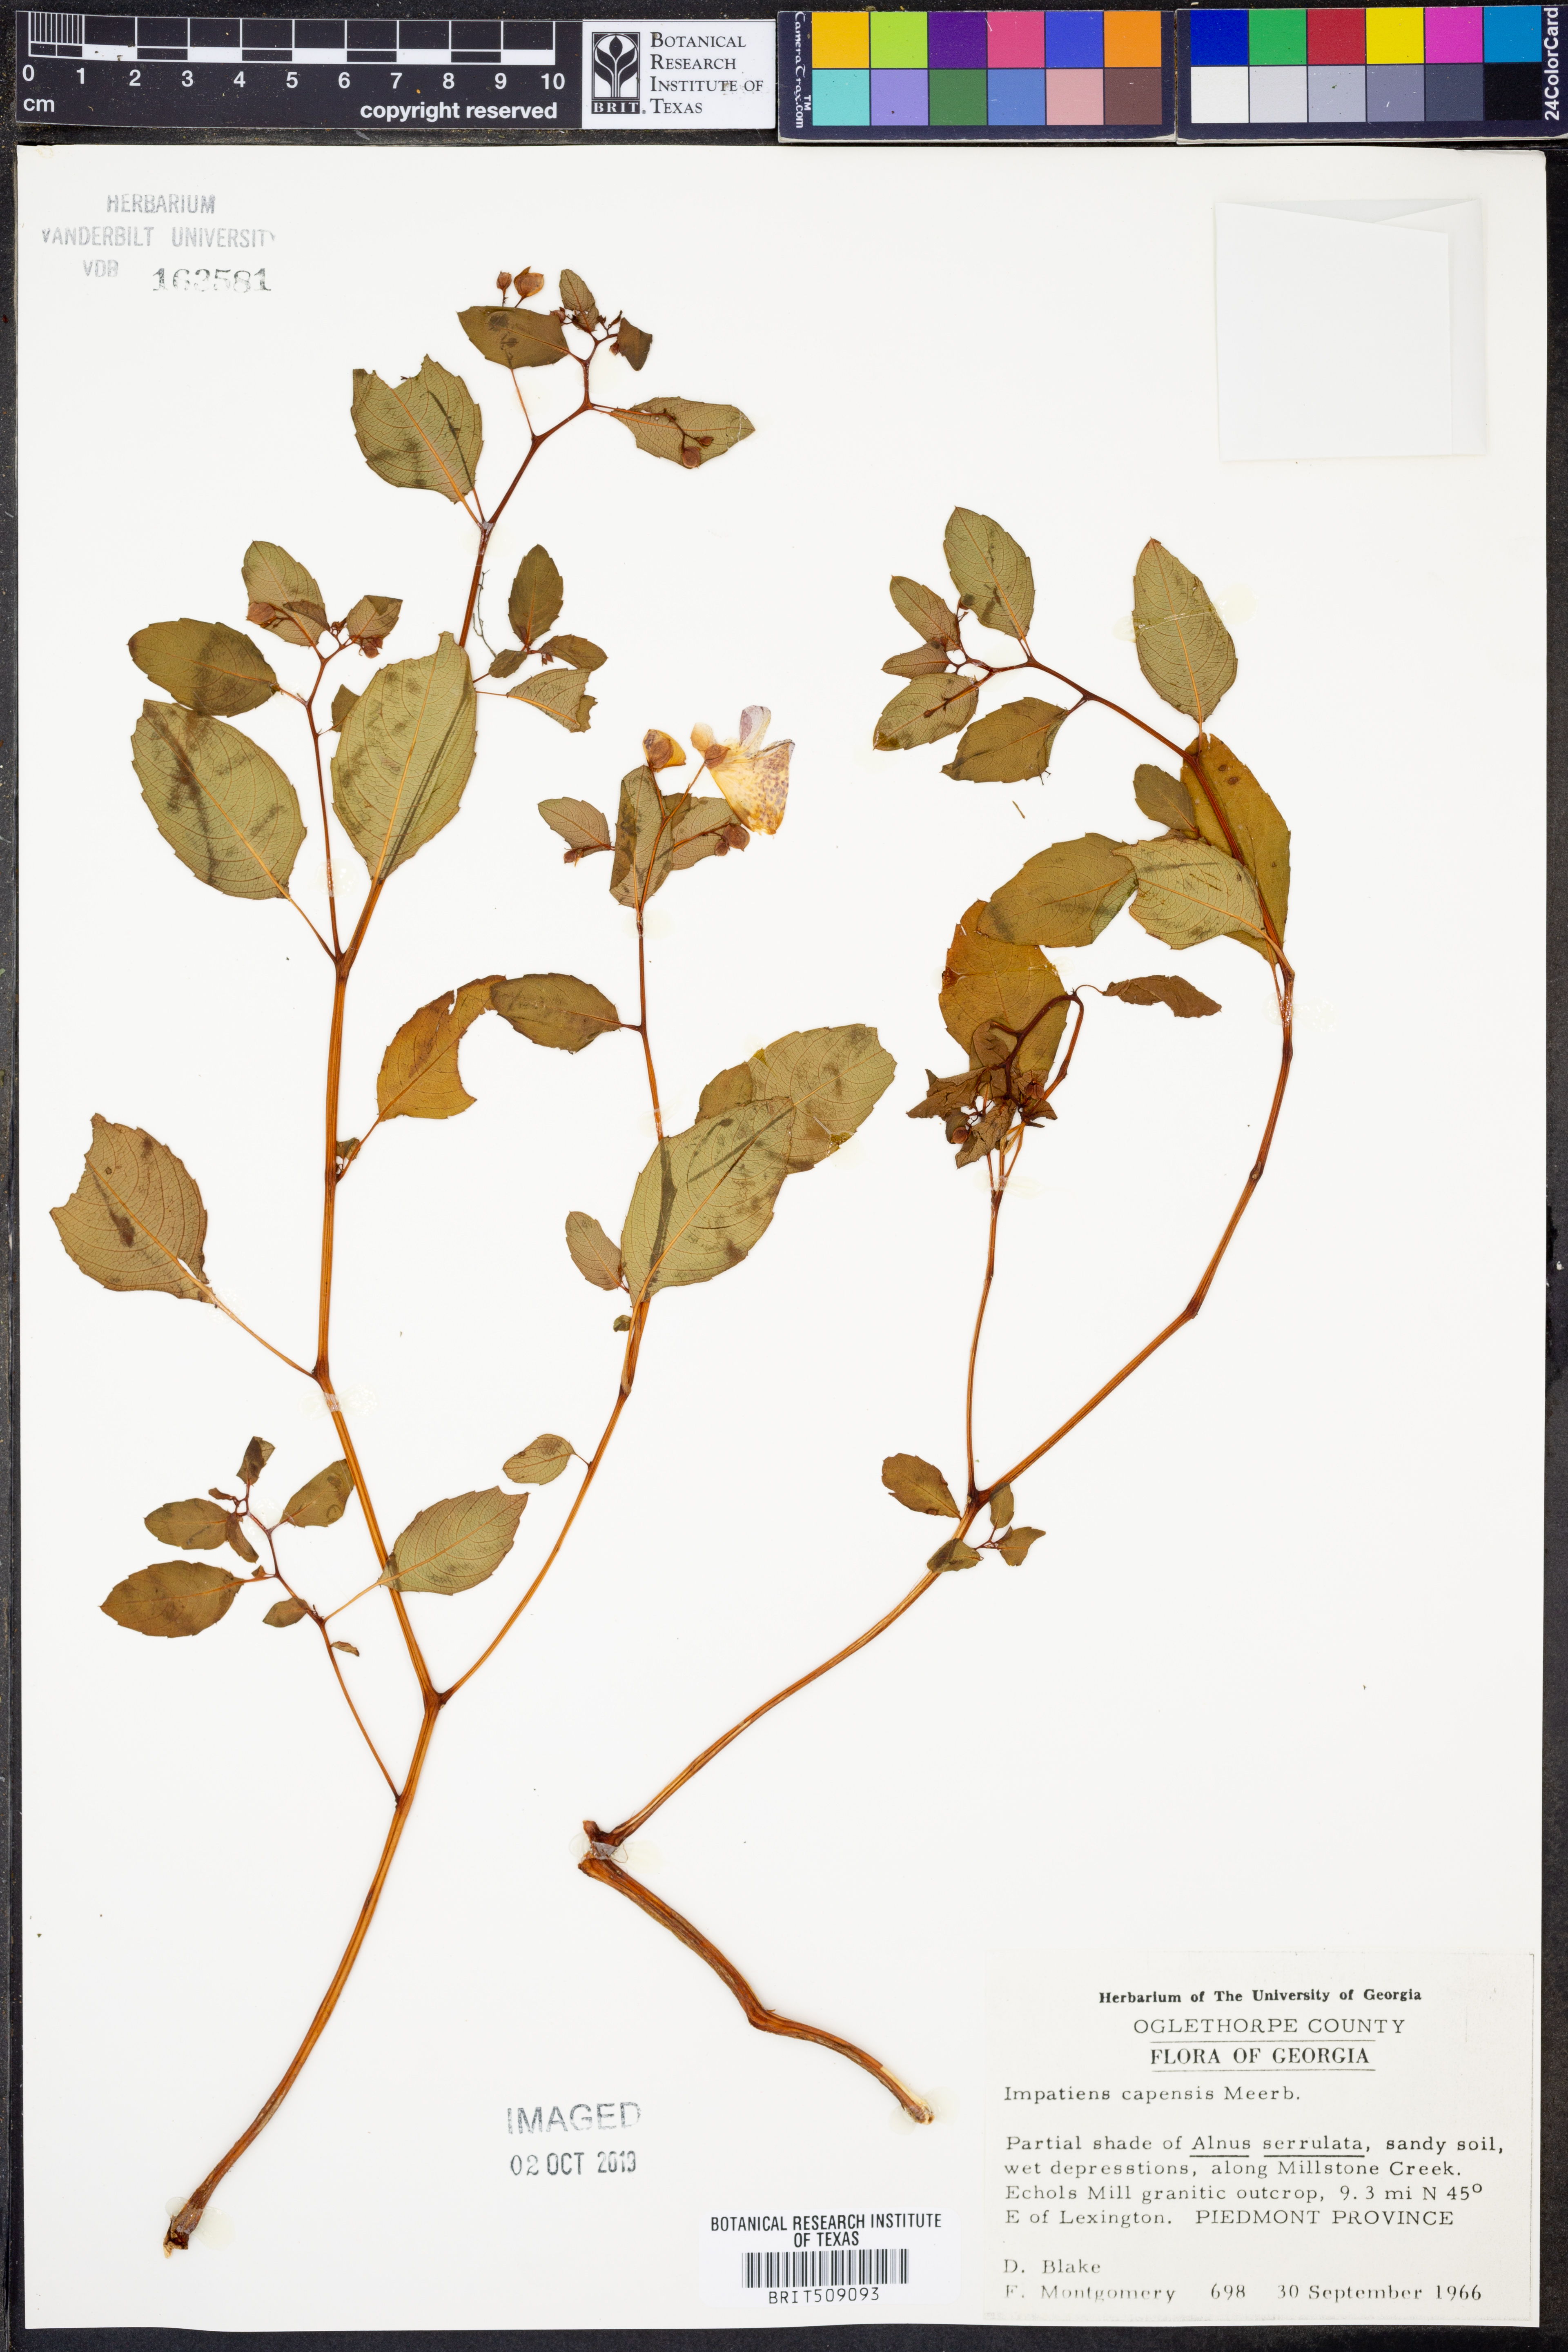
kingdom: Plantae
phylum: Tracheophyta
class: Magnoliopsida
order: Ericales
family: Balsaminaceae
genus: Impatiens
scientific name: Impatiens capensis
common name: Orange balsam
